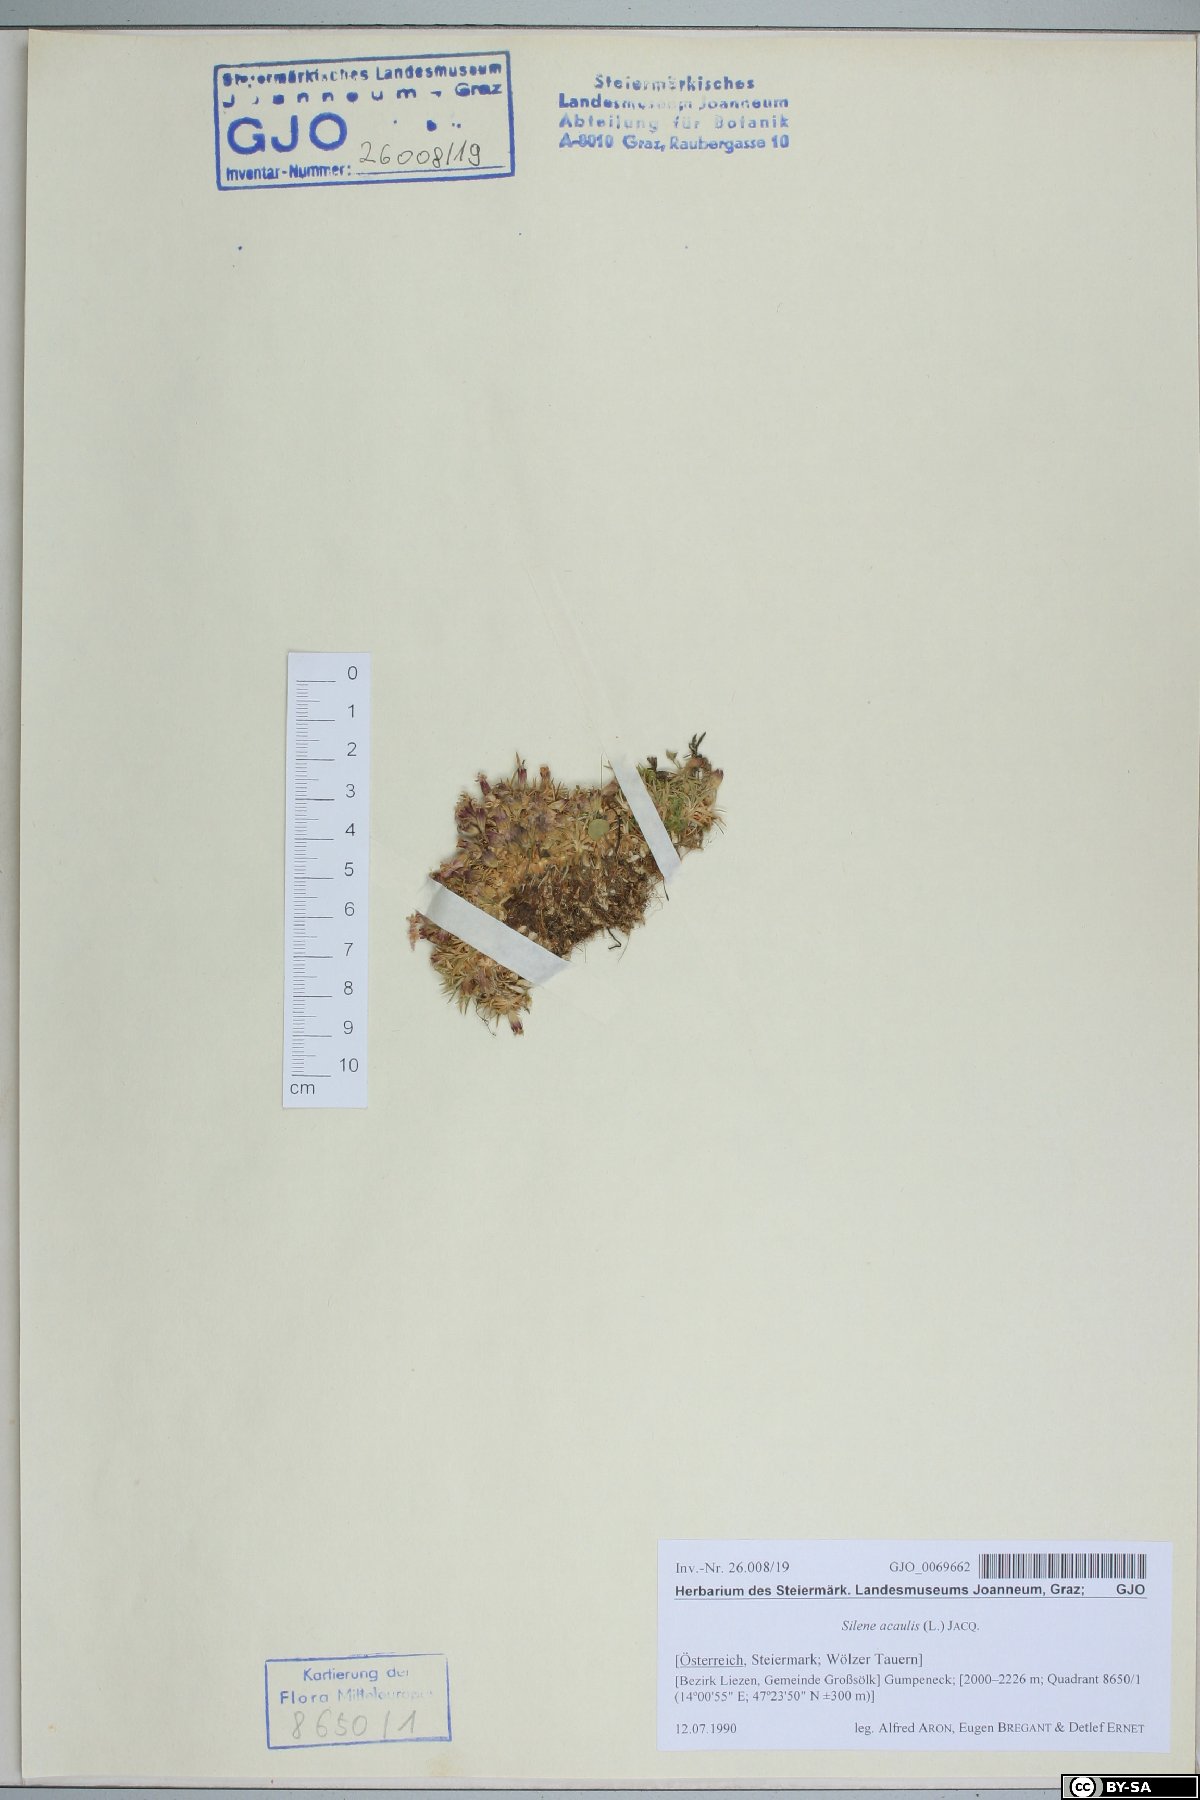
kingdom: Plantae
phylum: Tracheophyta
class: Magnoliopsida
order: Caryophyllales
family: Caryophyllaceae
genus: Silene
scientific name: Silene acaulis
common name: Moss campion
